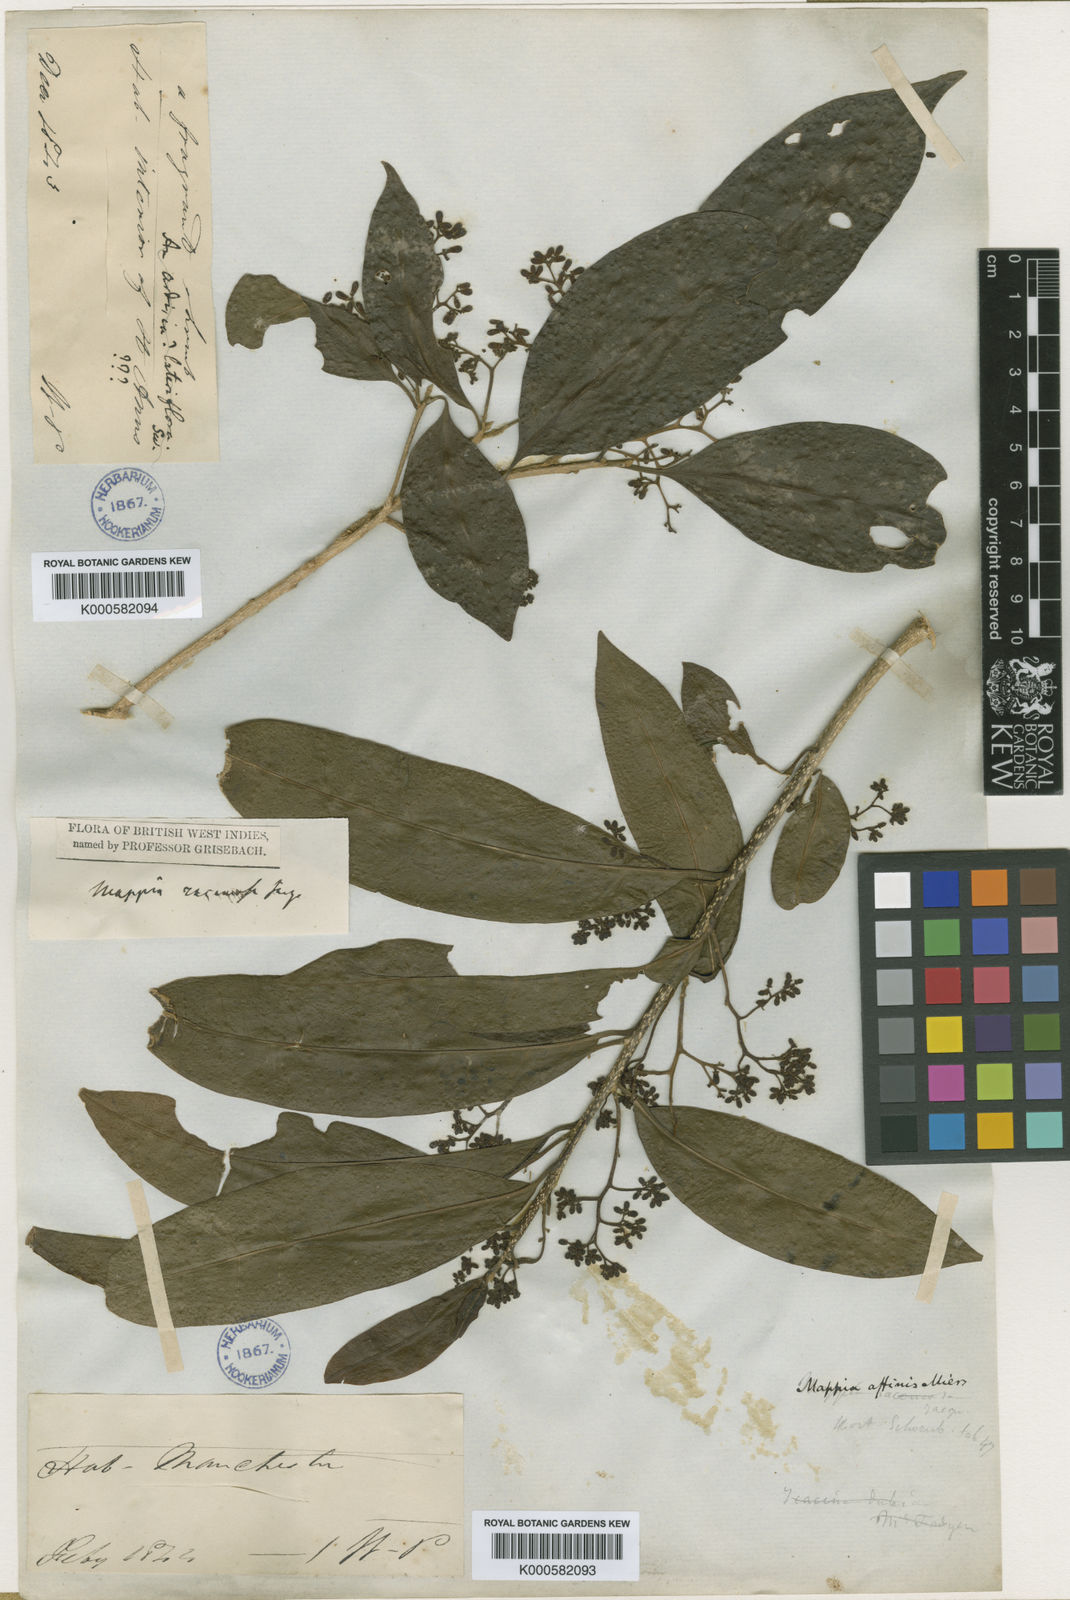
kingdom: Plantae
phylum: Tracheophyta
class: Magnoliopsida
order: Icacinales
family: Icacinaceae
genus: Mappia
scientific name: Mappia racemosa
